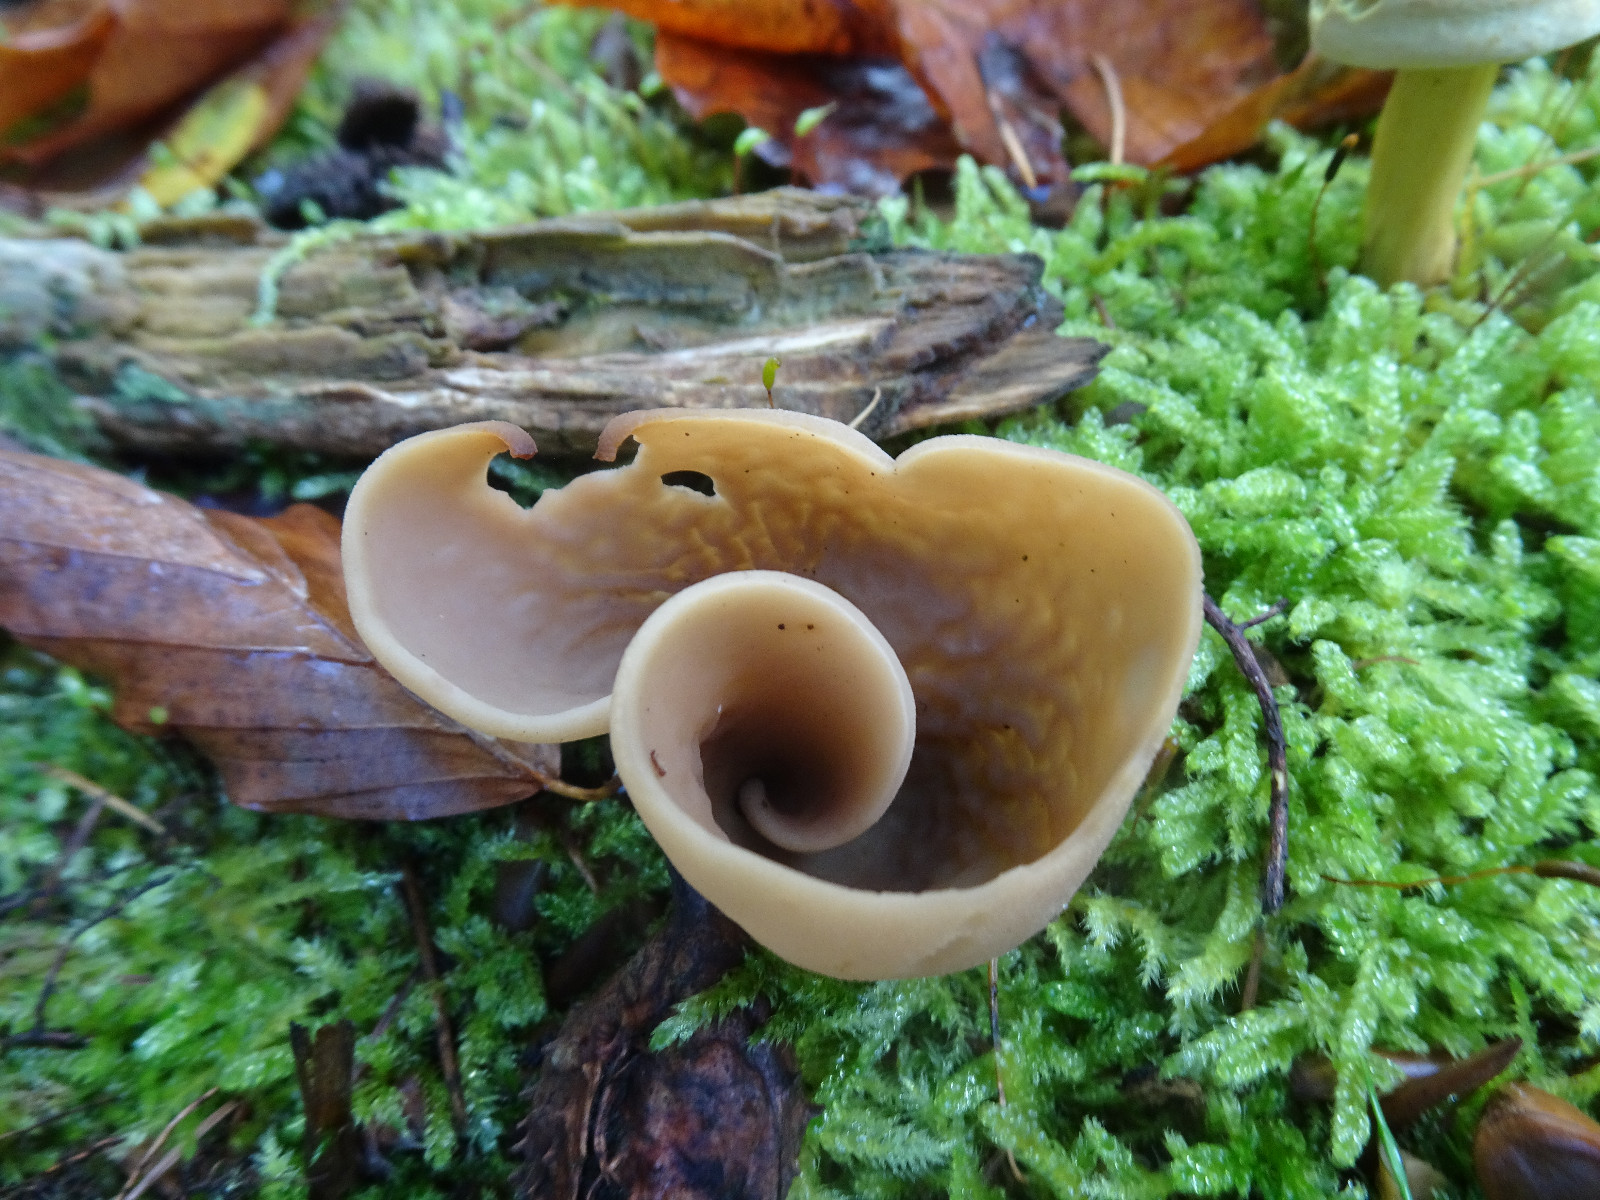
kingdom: Fungi
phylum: Ascomycota
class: Pezizomycetes
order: Pezizales
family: Otideaceae
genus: Otidea
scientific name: Otidea alutacea
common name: læder-ørebæger
